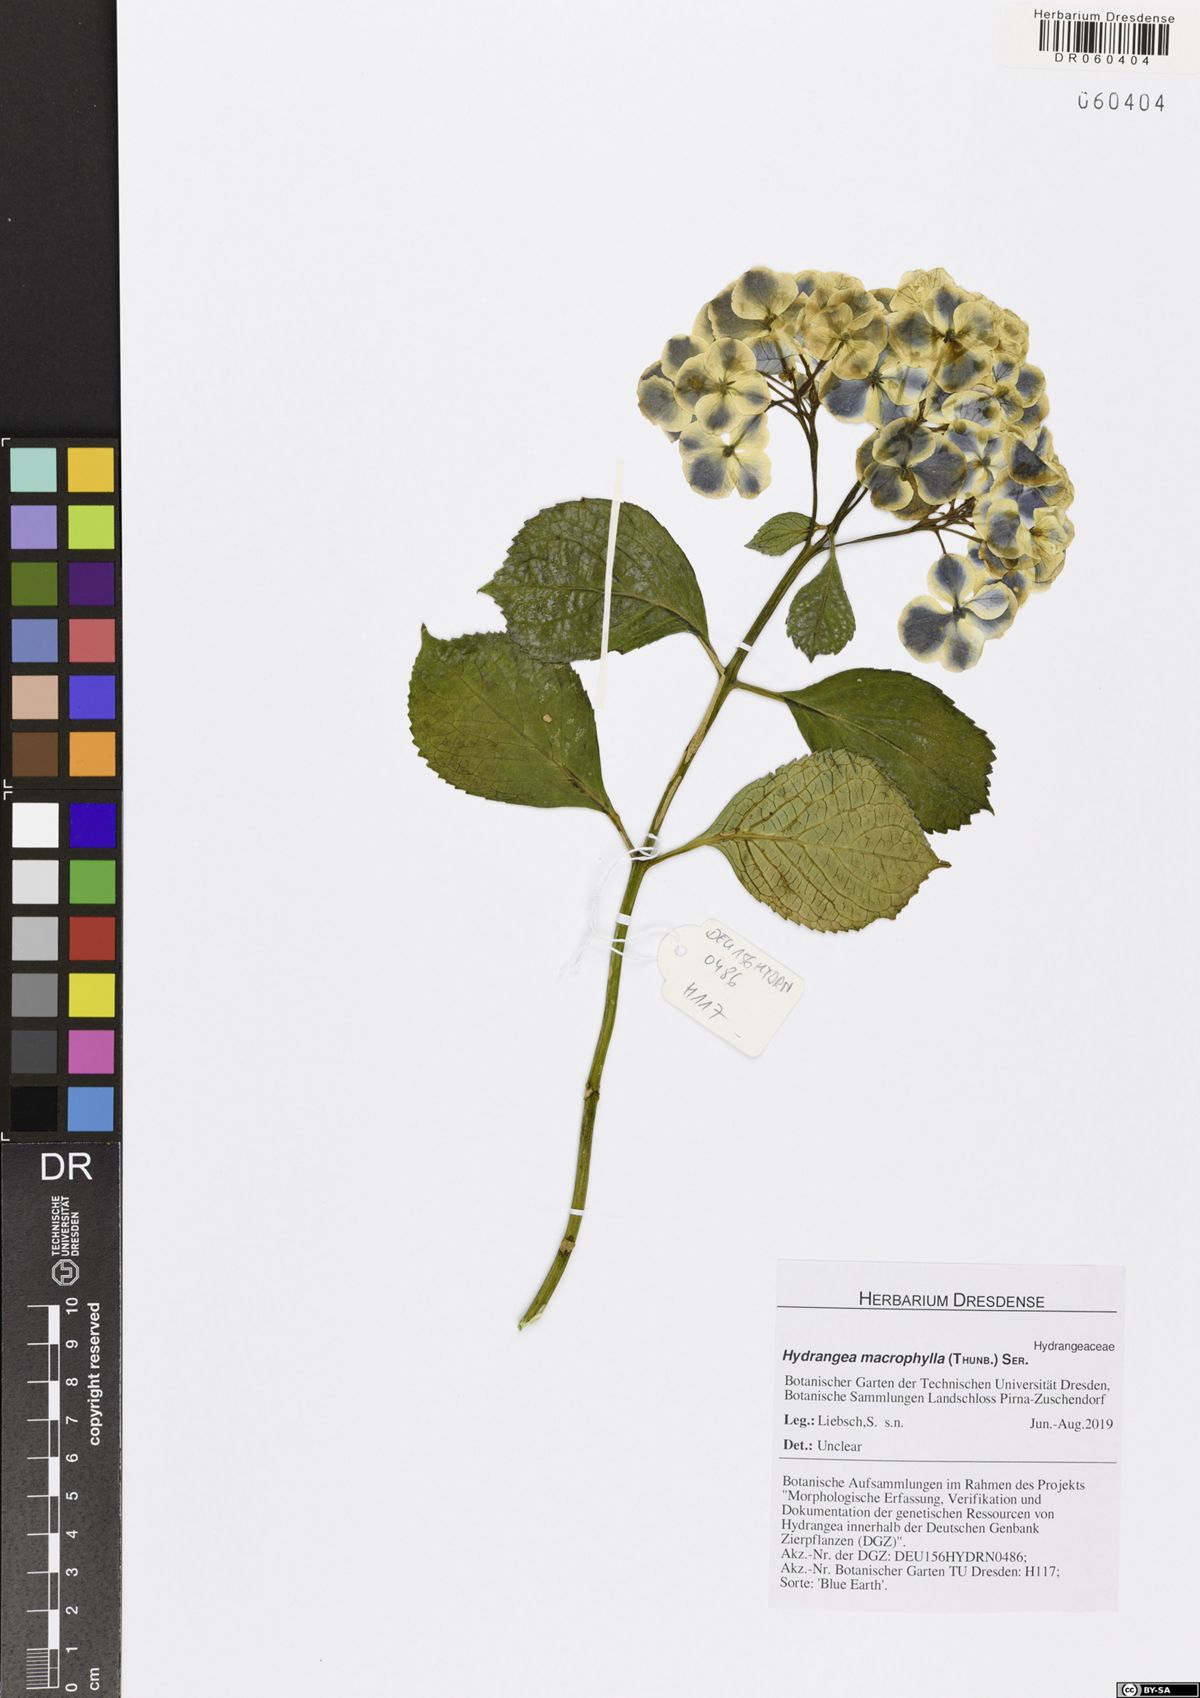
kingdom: Plantae
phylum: Tracheophyta
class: Magnoliopsida
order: Cornales
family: Hydrangeaceae
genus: Hydrangea
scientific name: Hydrangea macrophylla
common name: Hydrangea
